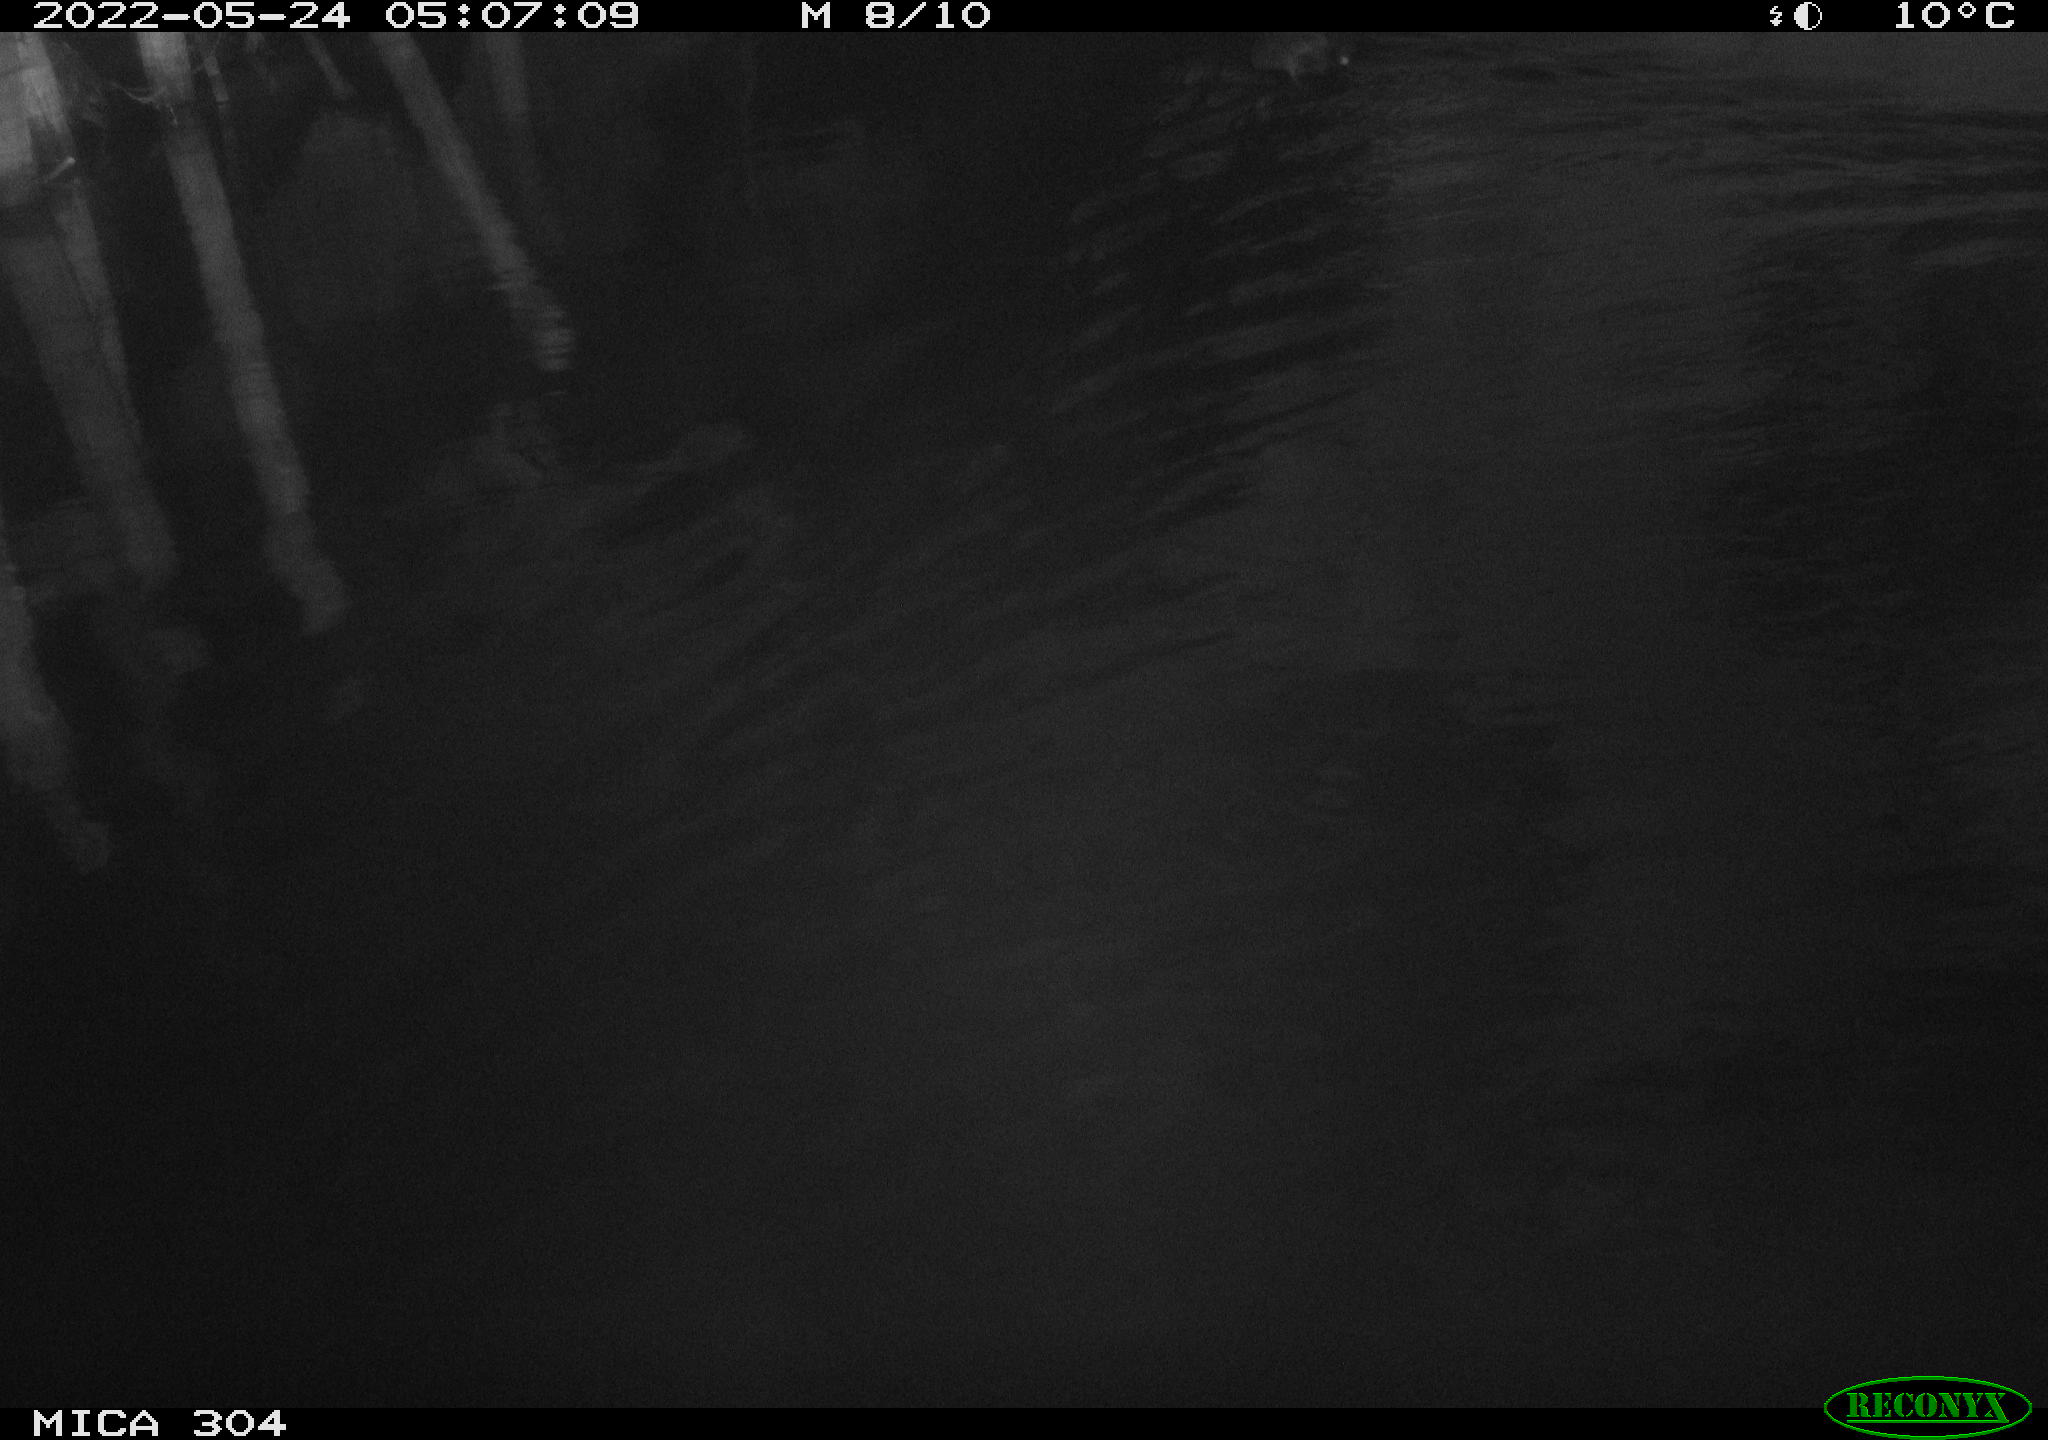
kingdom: Animalia
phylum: Chordata
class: Aves
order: Gruiformes
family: Rallidae
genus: Fulica
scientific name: Fulica atra
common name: Eurasian coot
